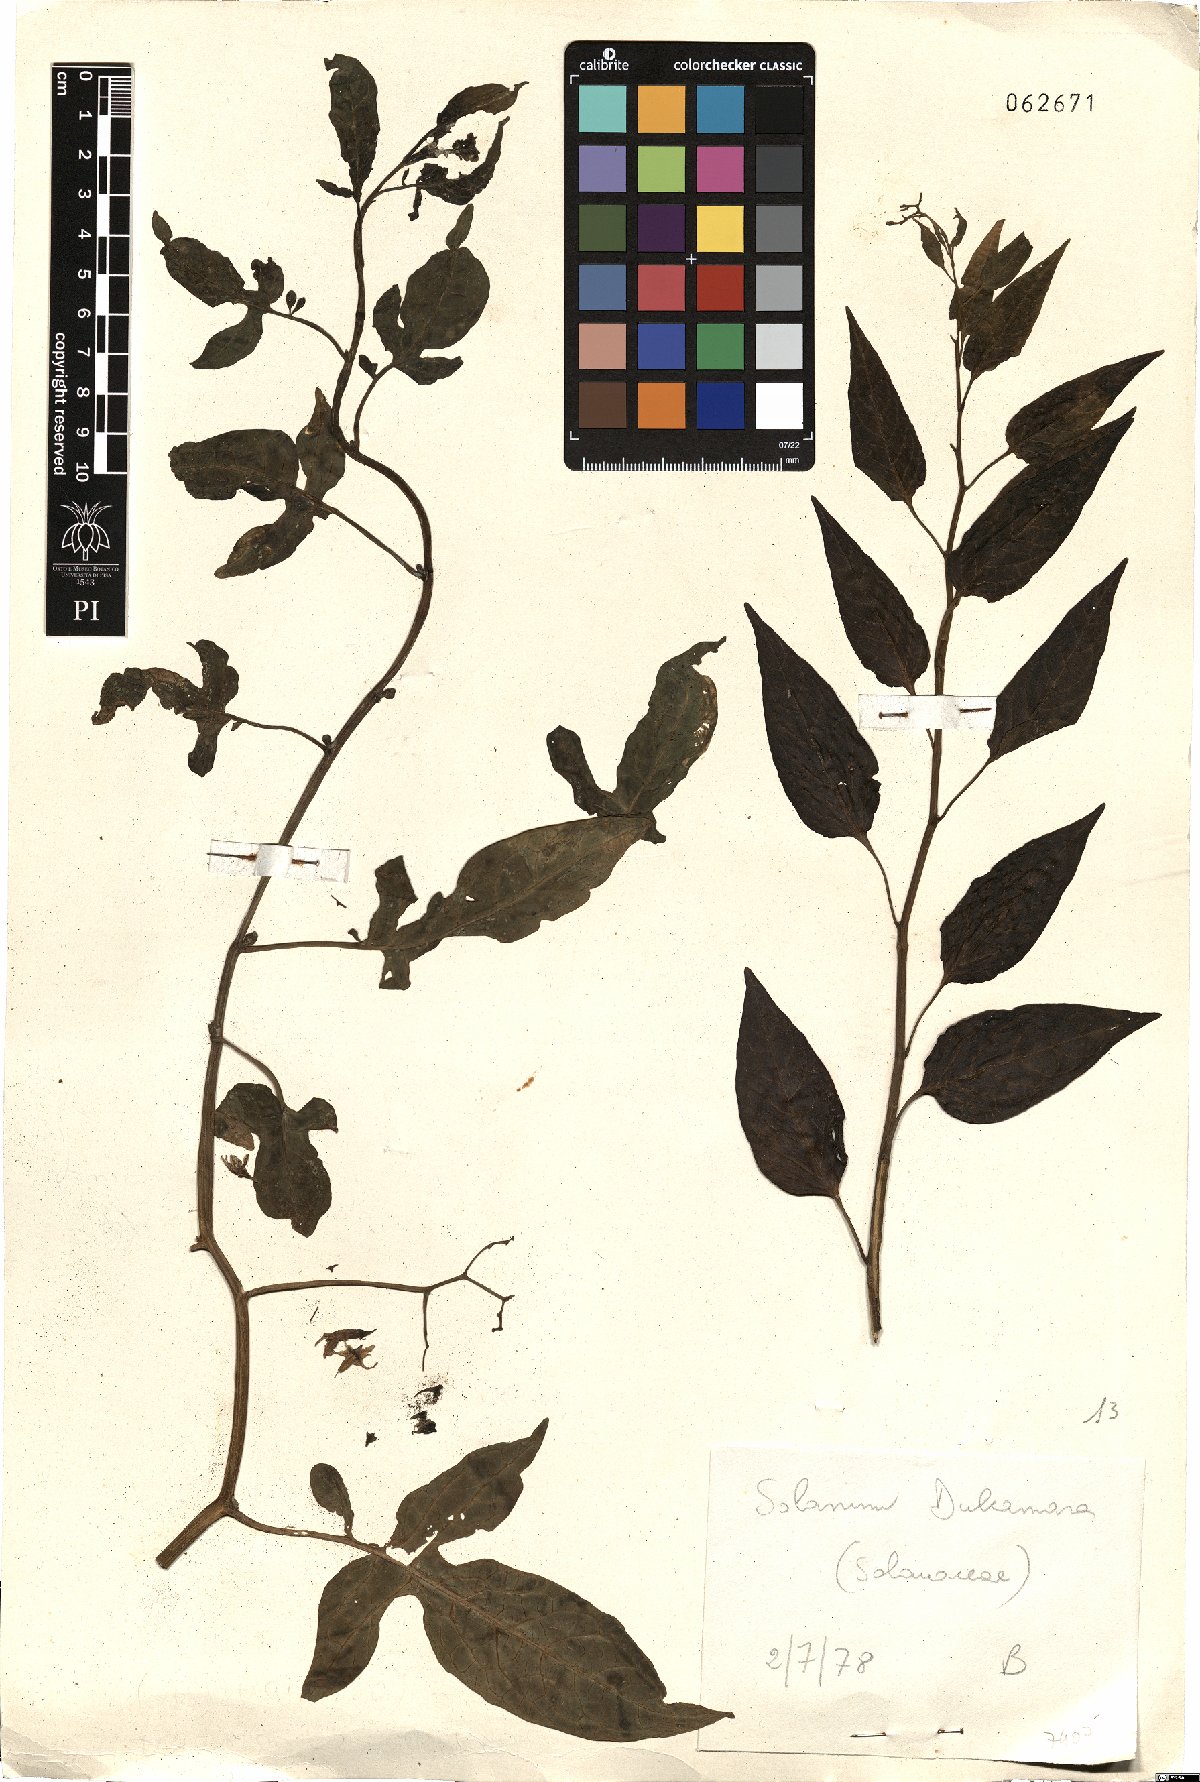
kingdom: Plantae
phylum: Tracheophyta
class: Magnoliopsida
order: Solanales
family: Solanaceae
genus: Solanum
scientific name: Solanum dulcamara
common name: Climbing nightshade
